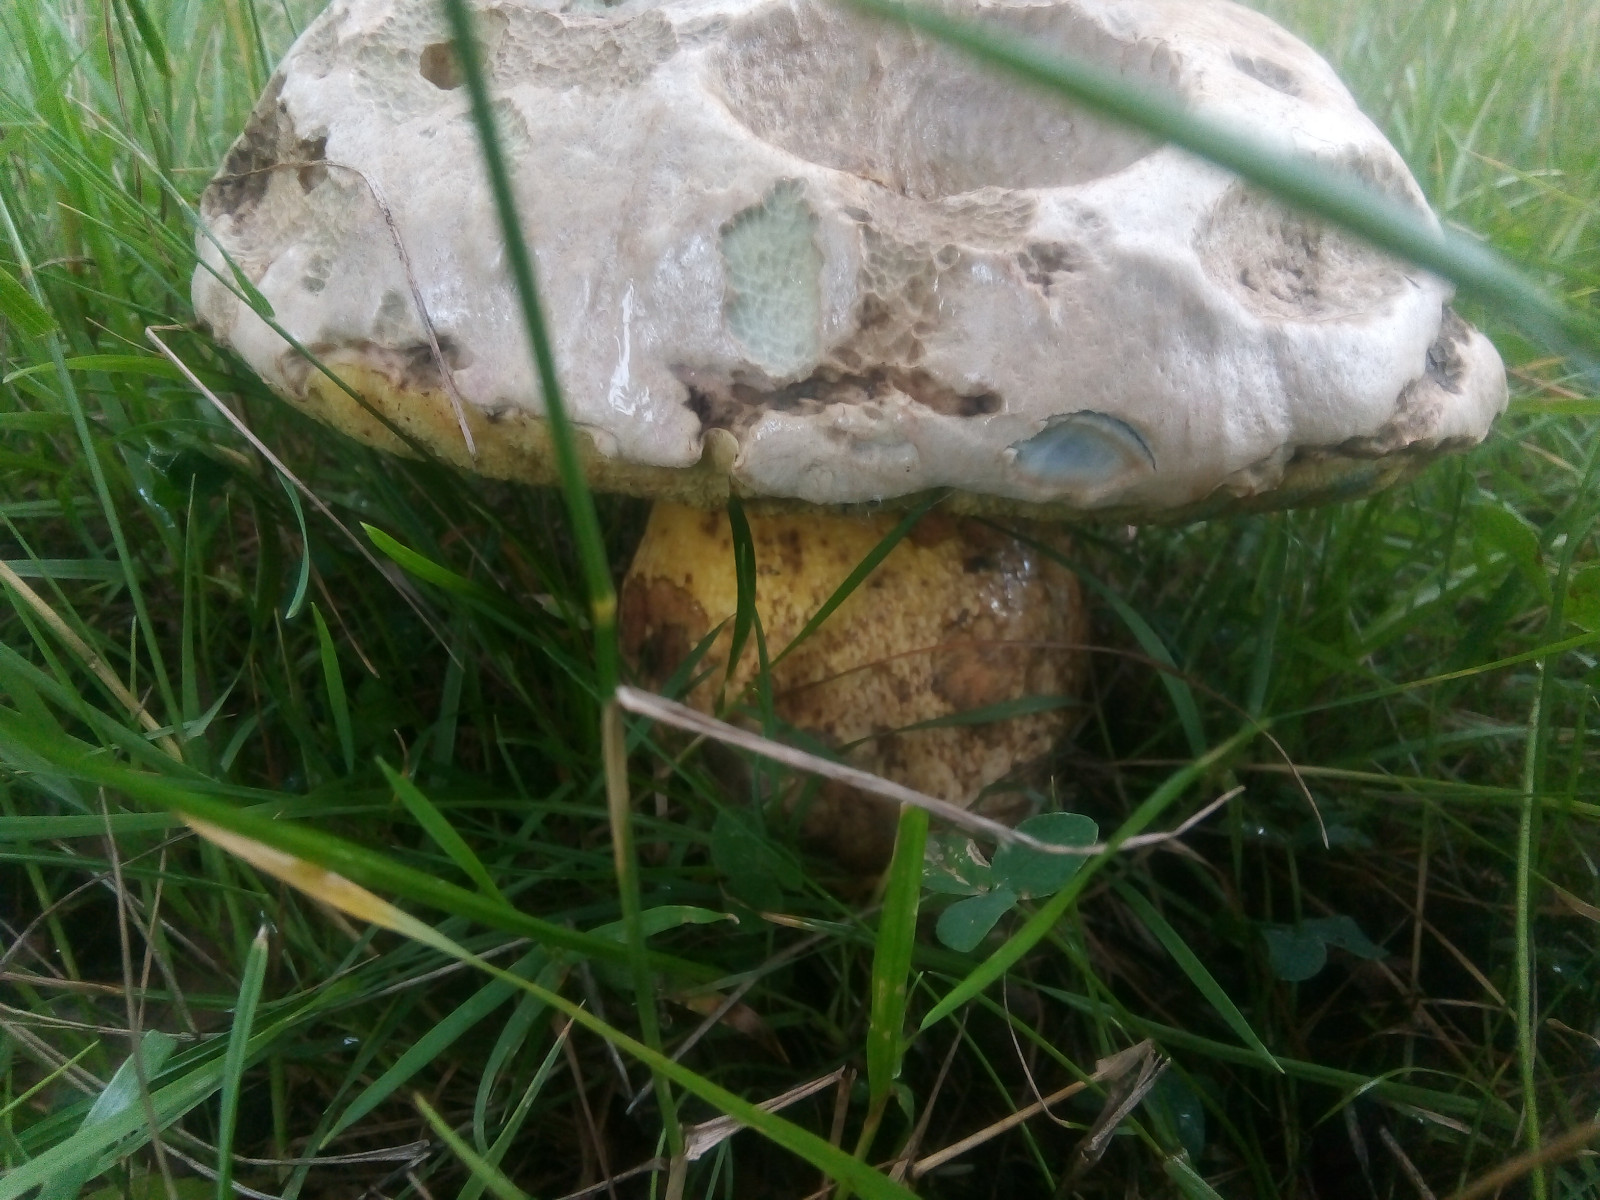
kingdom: Fungi
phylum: Basidiomycota
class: Agaricomycetes
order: Boletales
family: Boletaceae
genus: Caloboletus
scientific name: Caloboletus radicans
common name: rod-rørhat
